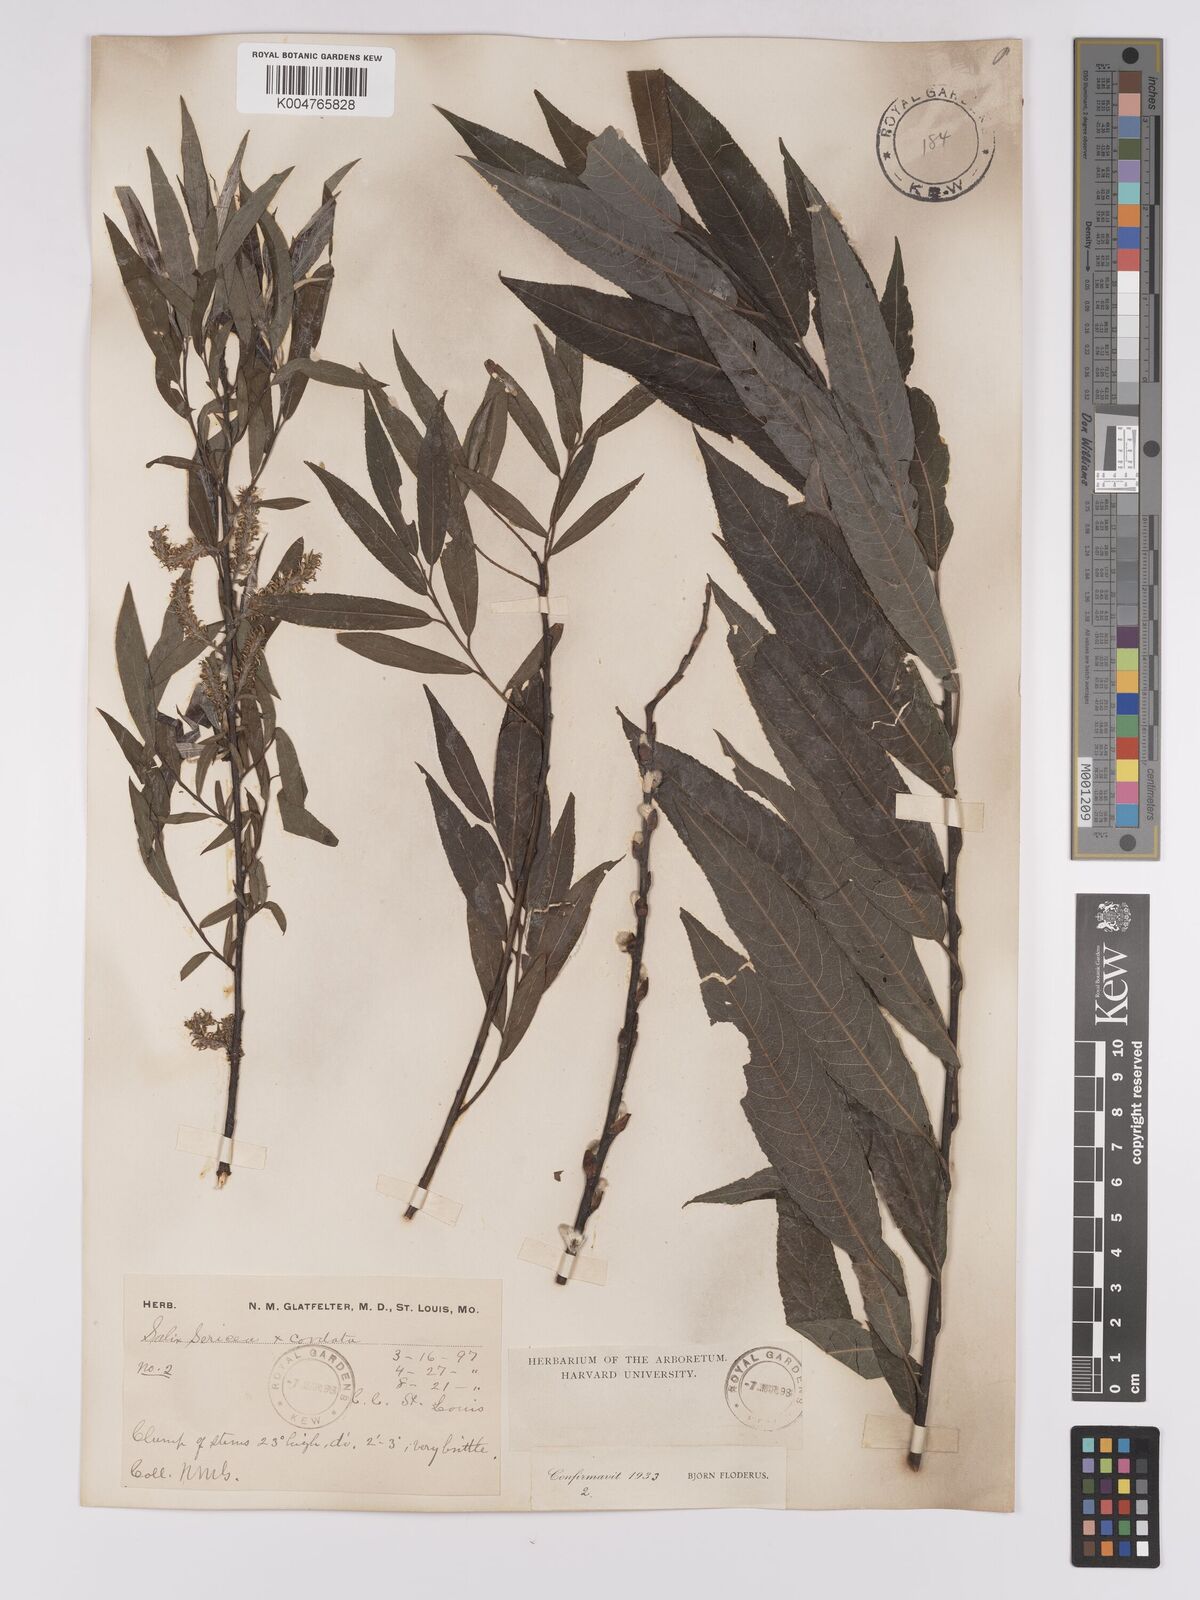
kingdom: Plantae
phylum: Tracheophyta
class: Magnoliopsida
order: Malpighiales
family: Salicaceae
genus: Salix
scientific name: Salix
